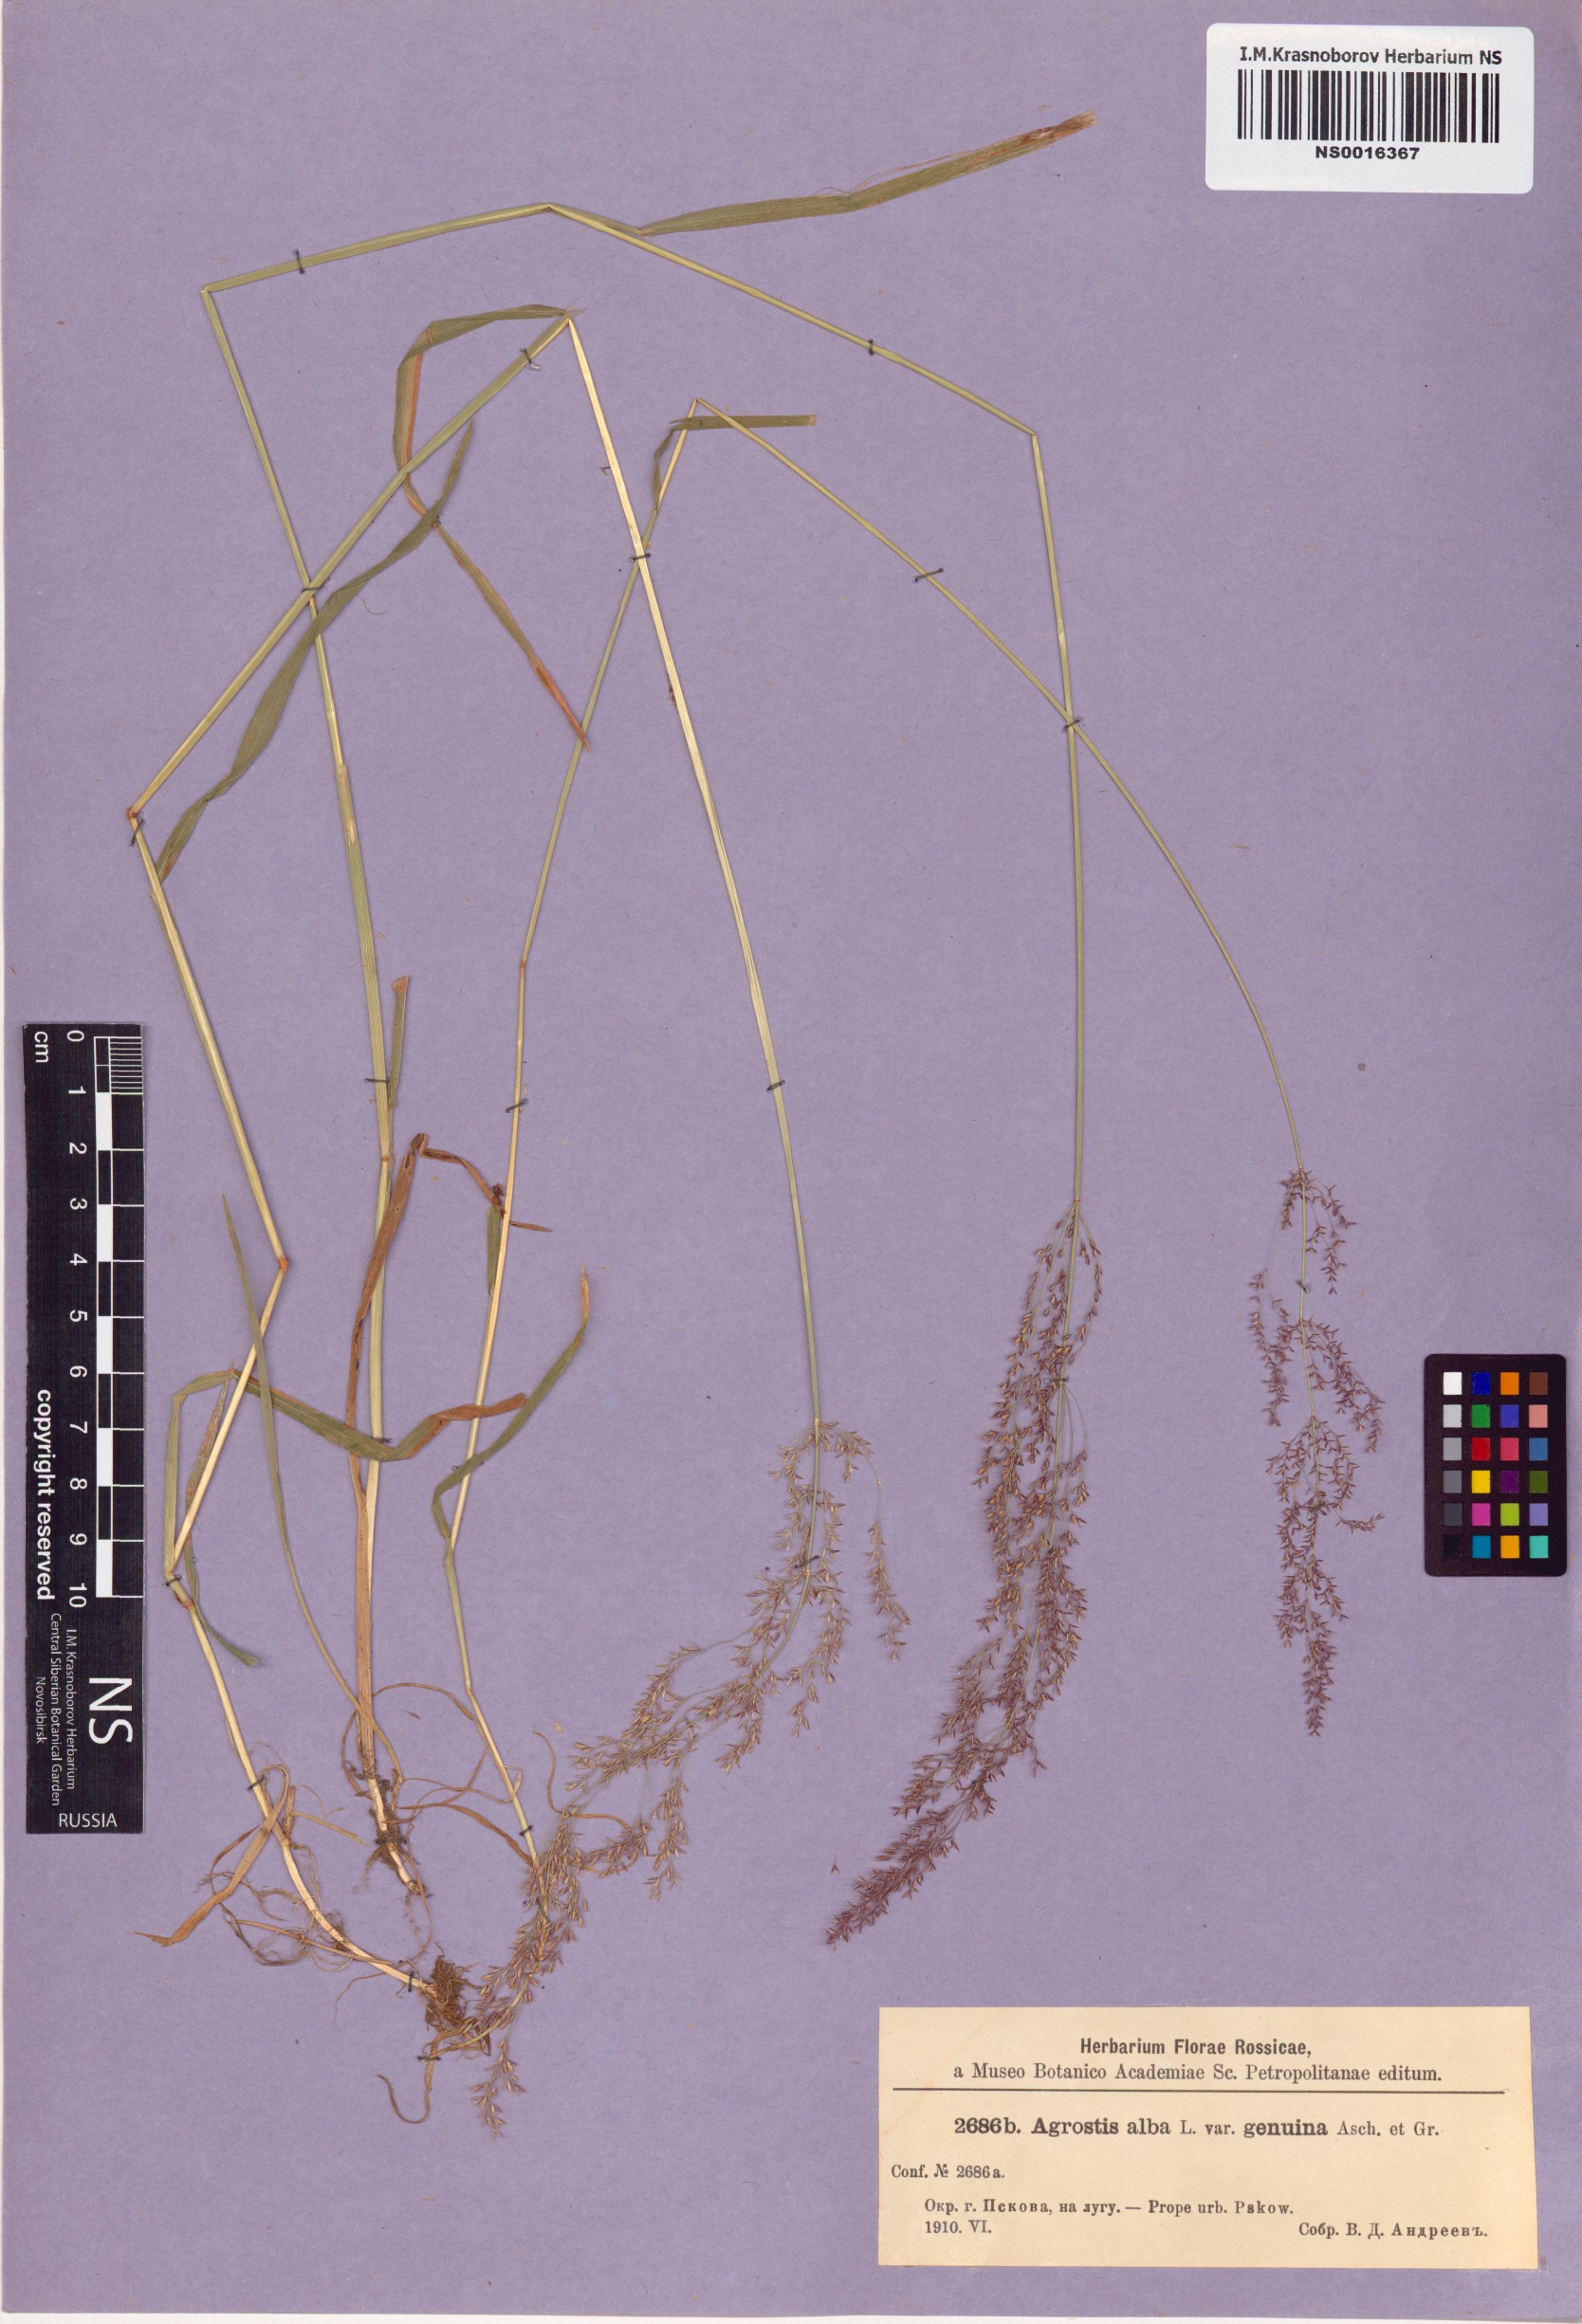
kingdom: Plantae
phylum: Tracheophyta
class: Liliopsida
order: Poales
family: Poaceae
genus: Agrostis
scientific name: Agrostis alba
